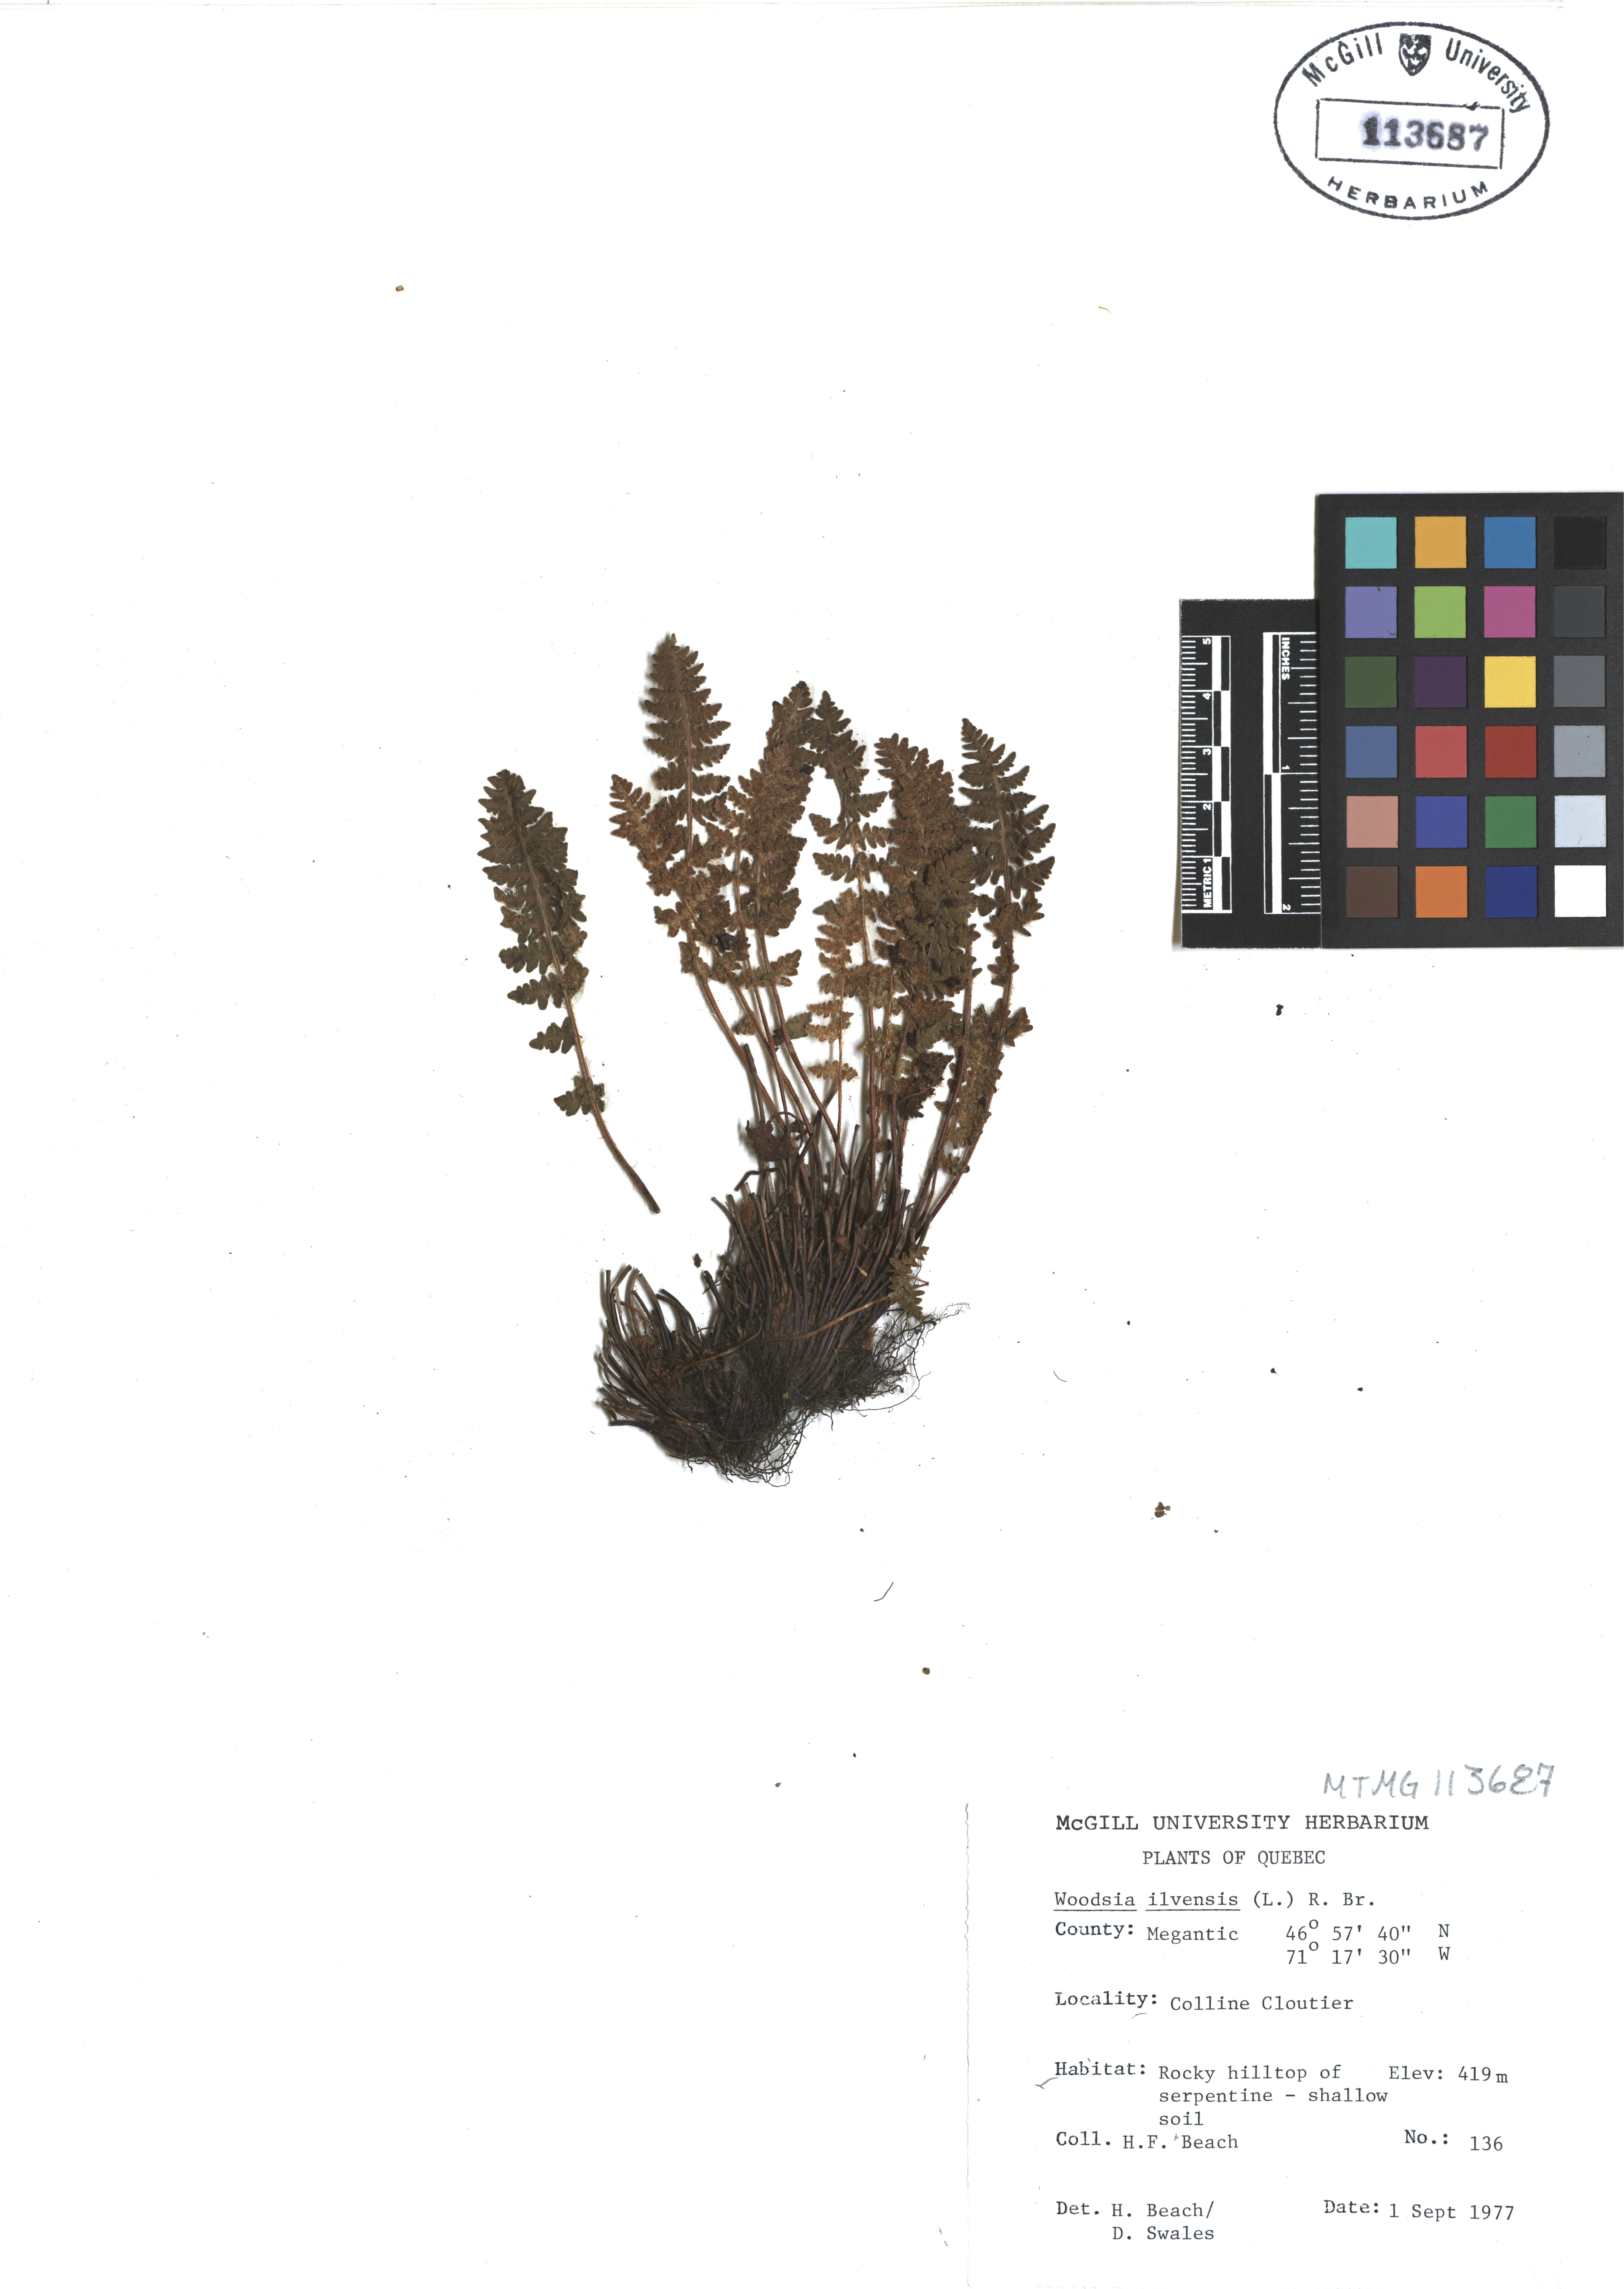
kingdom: Plantae
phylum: Tracheophyta
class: Polypodiopsida
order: Polypodiales
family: Woodsiaceae
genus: Woodsia
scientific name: Woodsia ilvensis
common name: Fragrant woodsia
